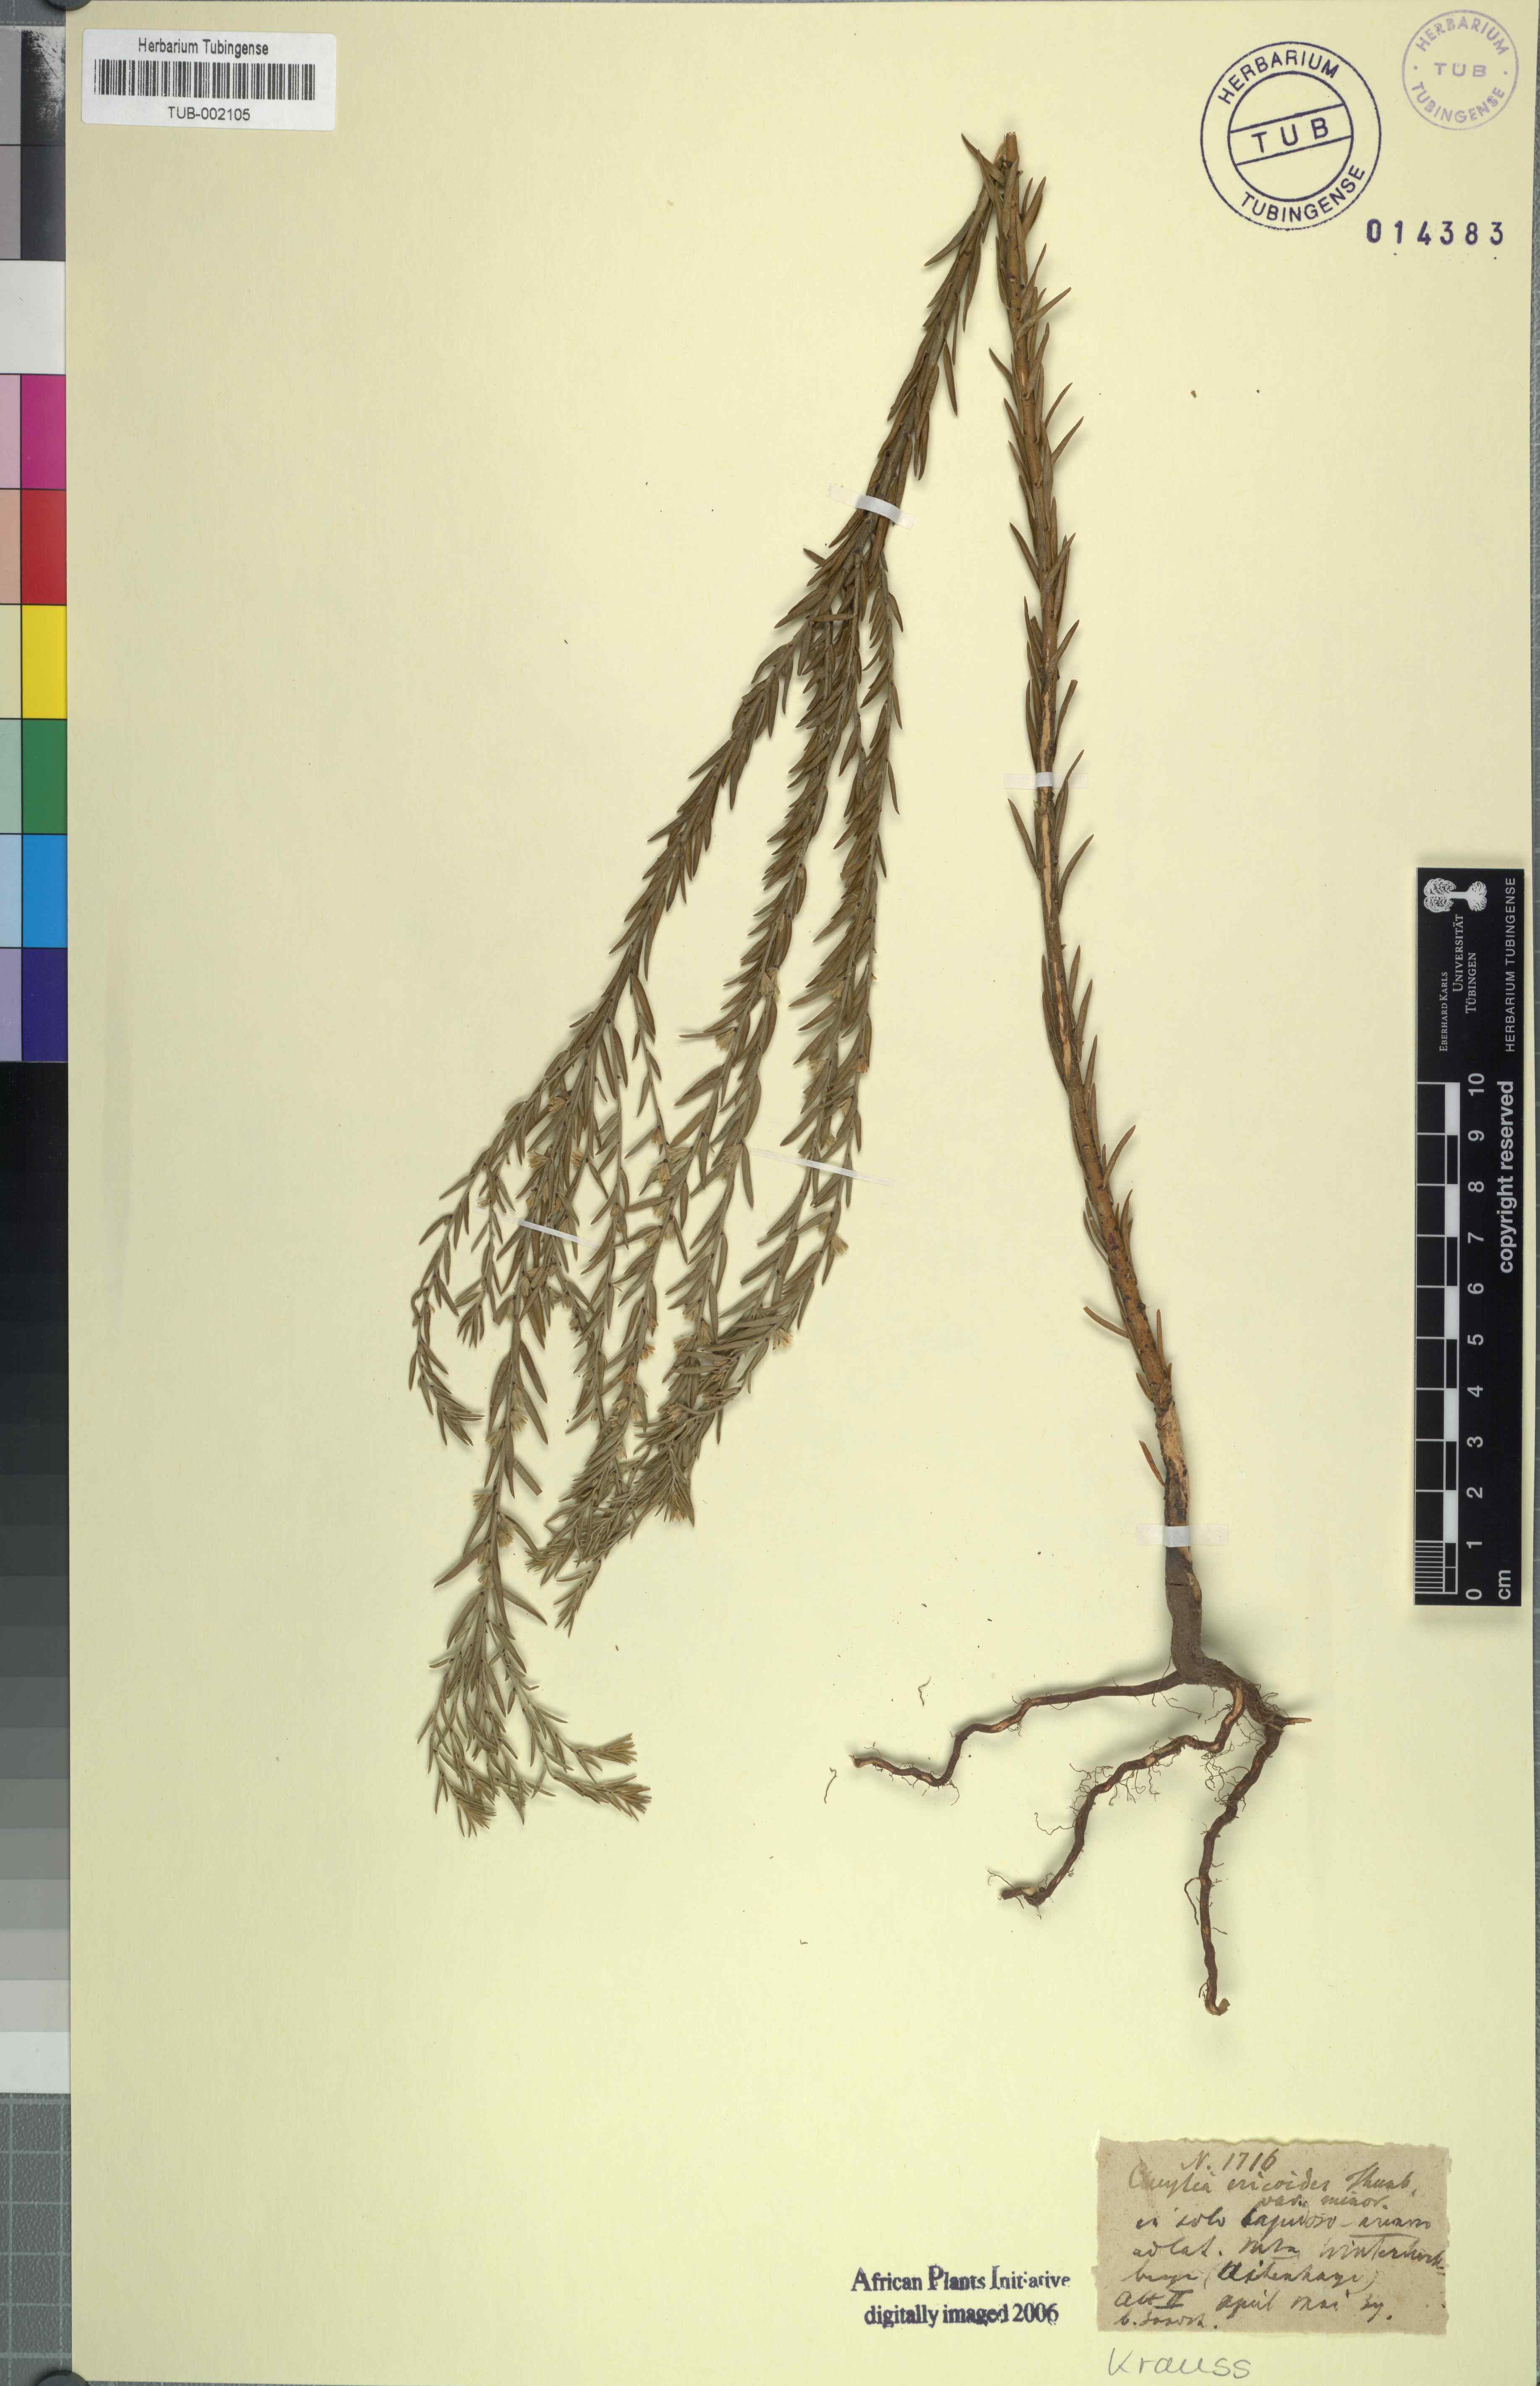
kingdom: Plantae
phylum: Tracheophyta
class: Magnoliopsida
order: Malpighiales
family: Peraceae
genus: Clutia
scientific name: Clutia ericoides
